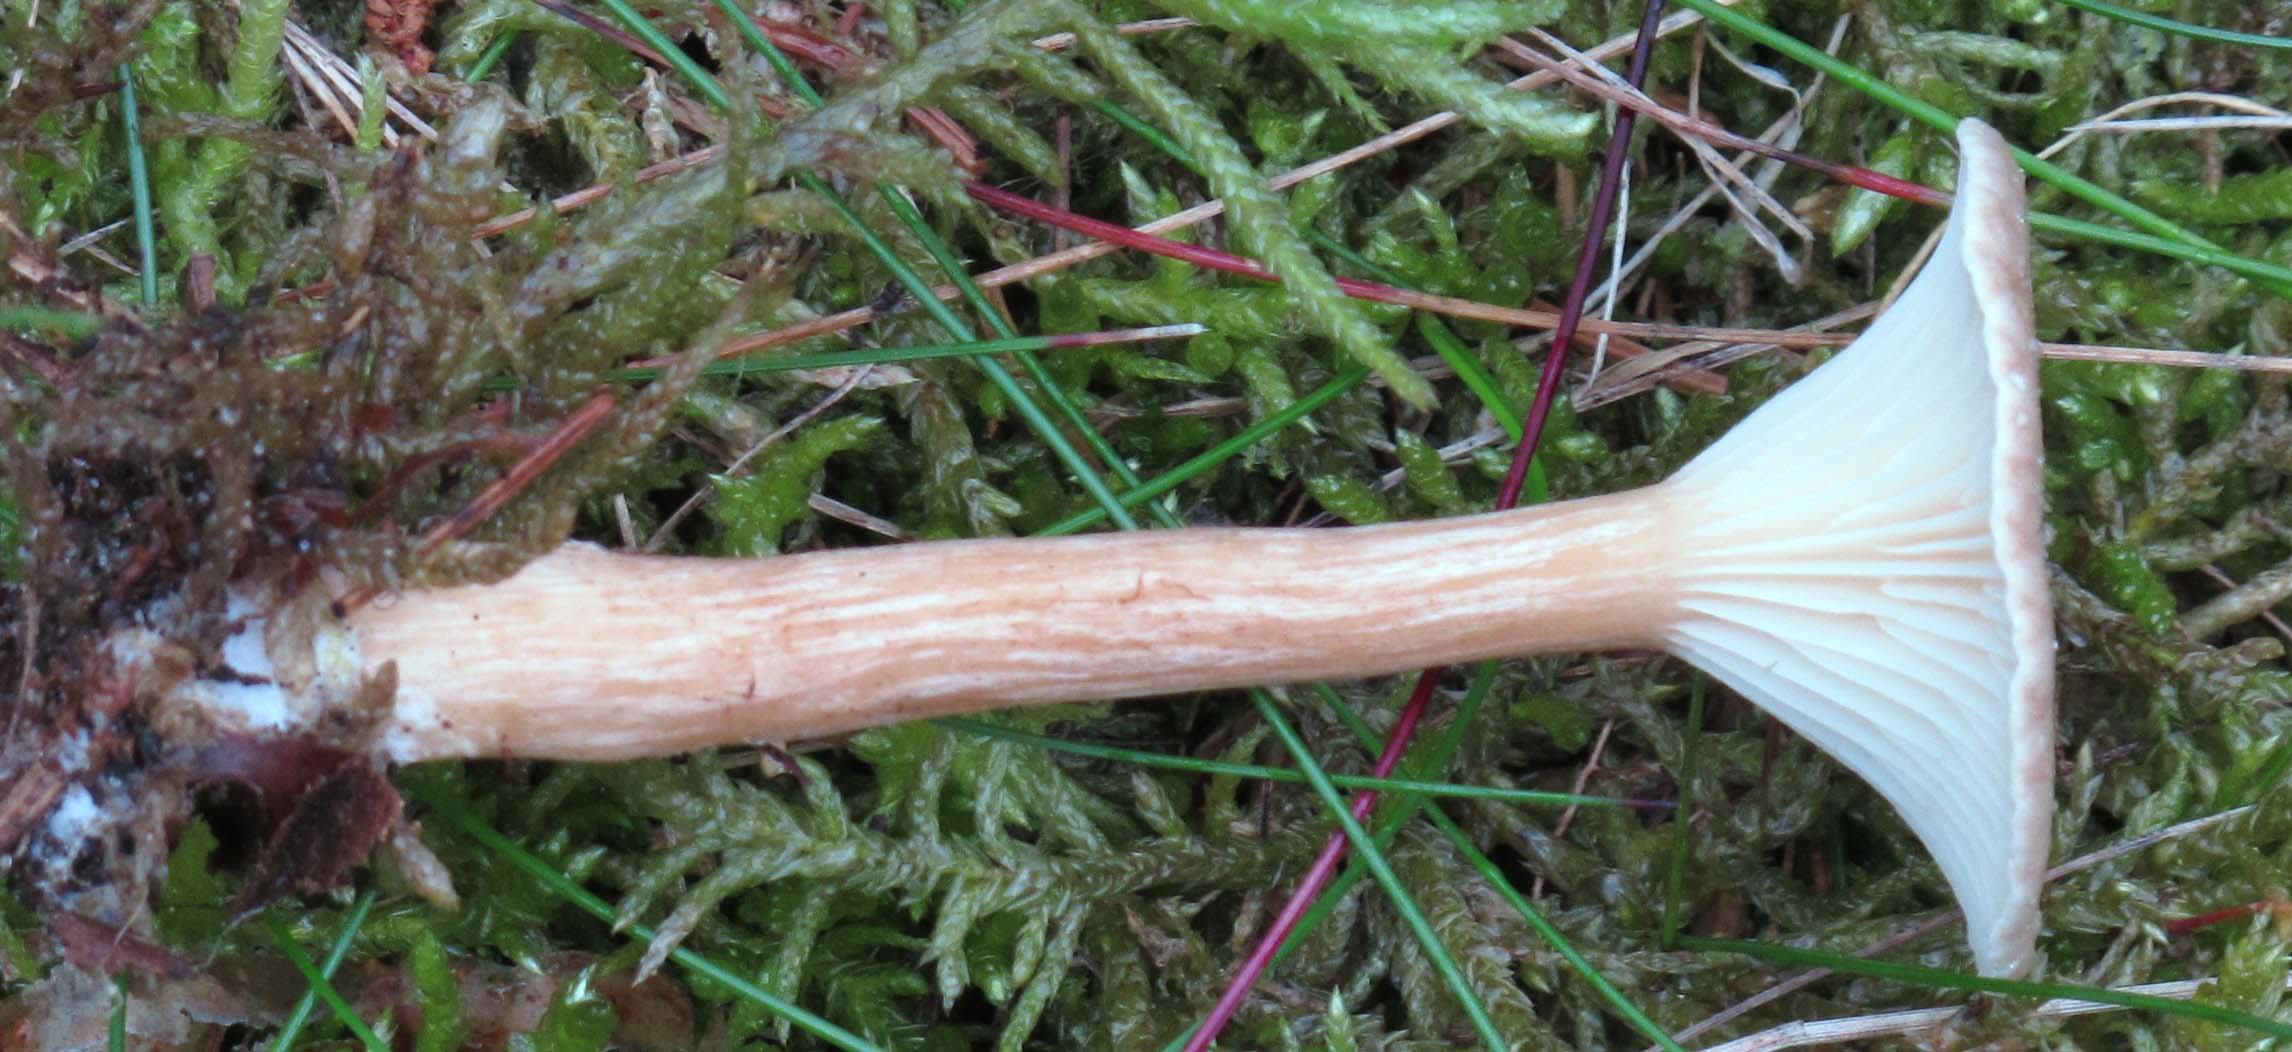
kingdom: Fungi
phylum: Basidiomycota
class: Agaricomycetes
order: Agaricales
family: Tricholomataceae
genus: Infundibulicybe
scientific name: Infundibulicybe squamulosa
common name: småskællet tragthat
